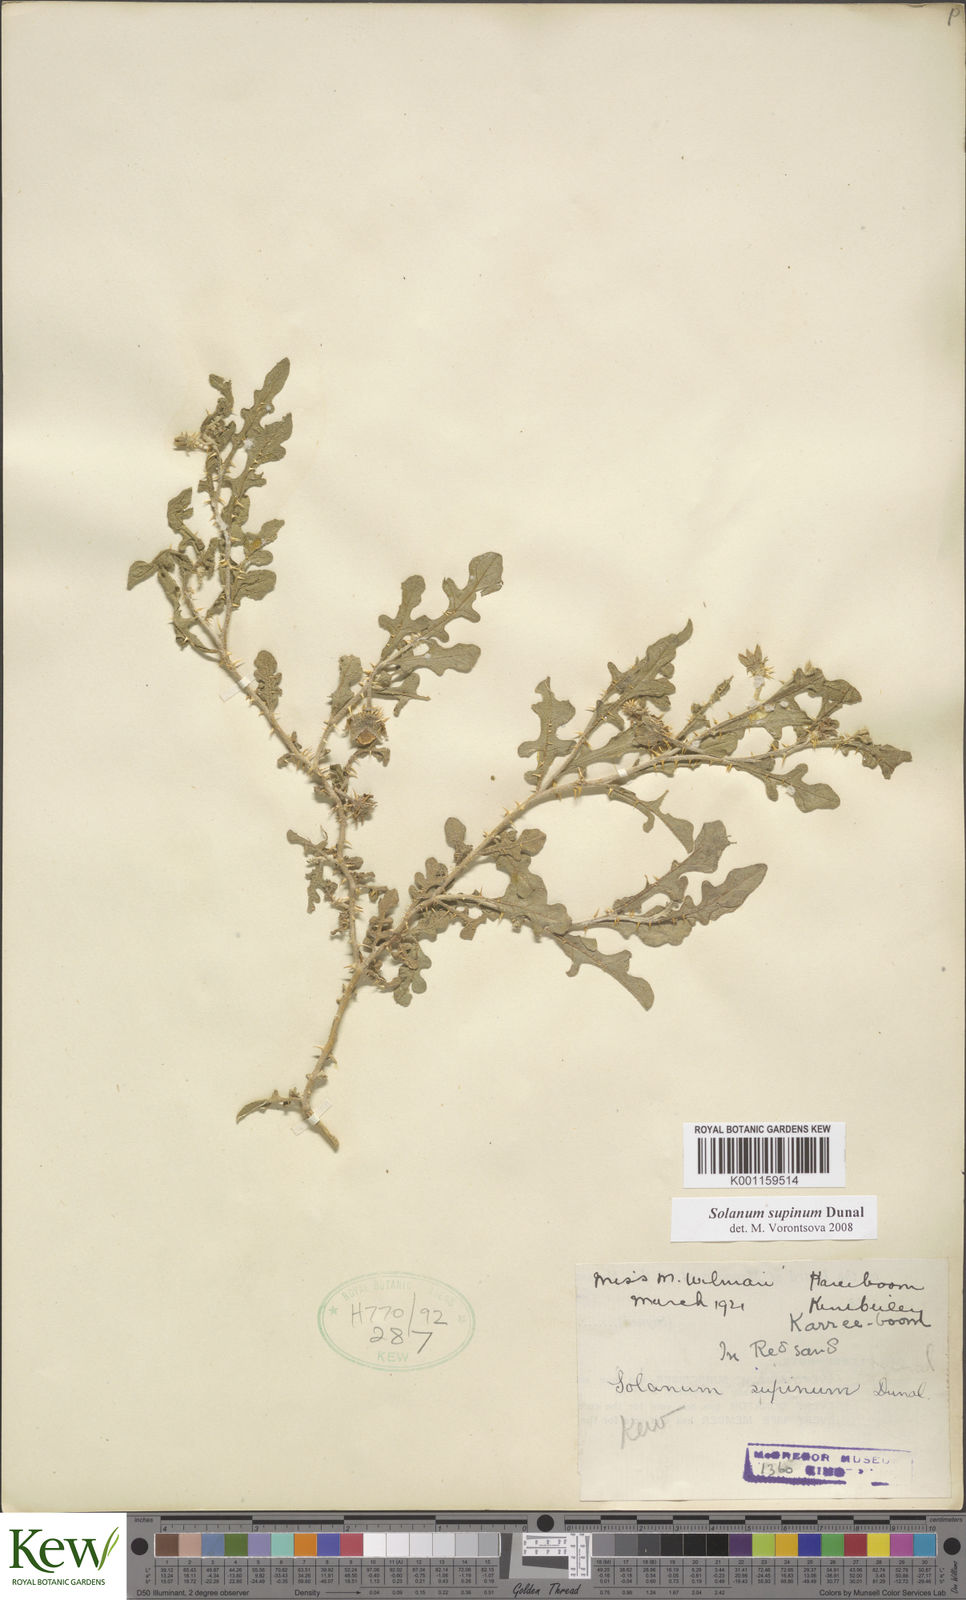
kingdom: Plantae
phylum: Tracheophyta
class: Magnoliopsida
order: Solanales
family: Solanaceae
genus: Solanum
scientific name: Solanum supinum
